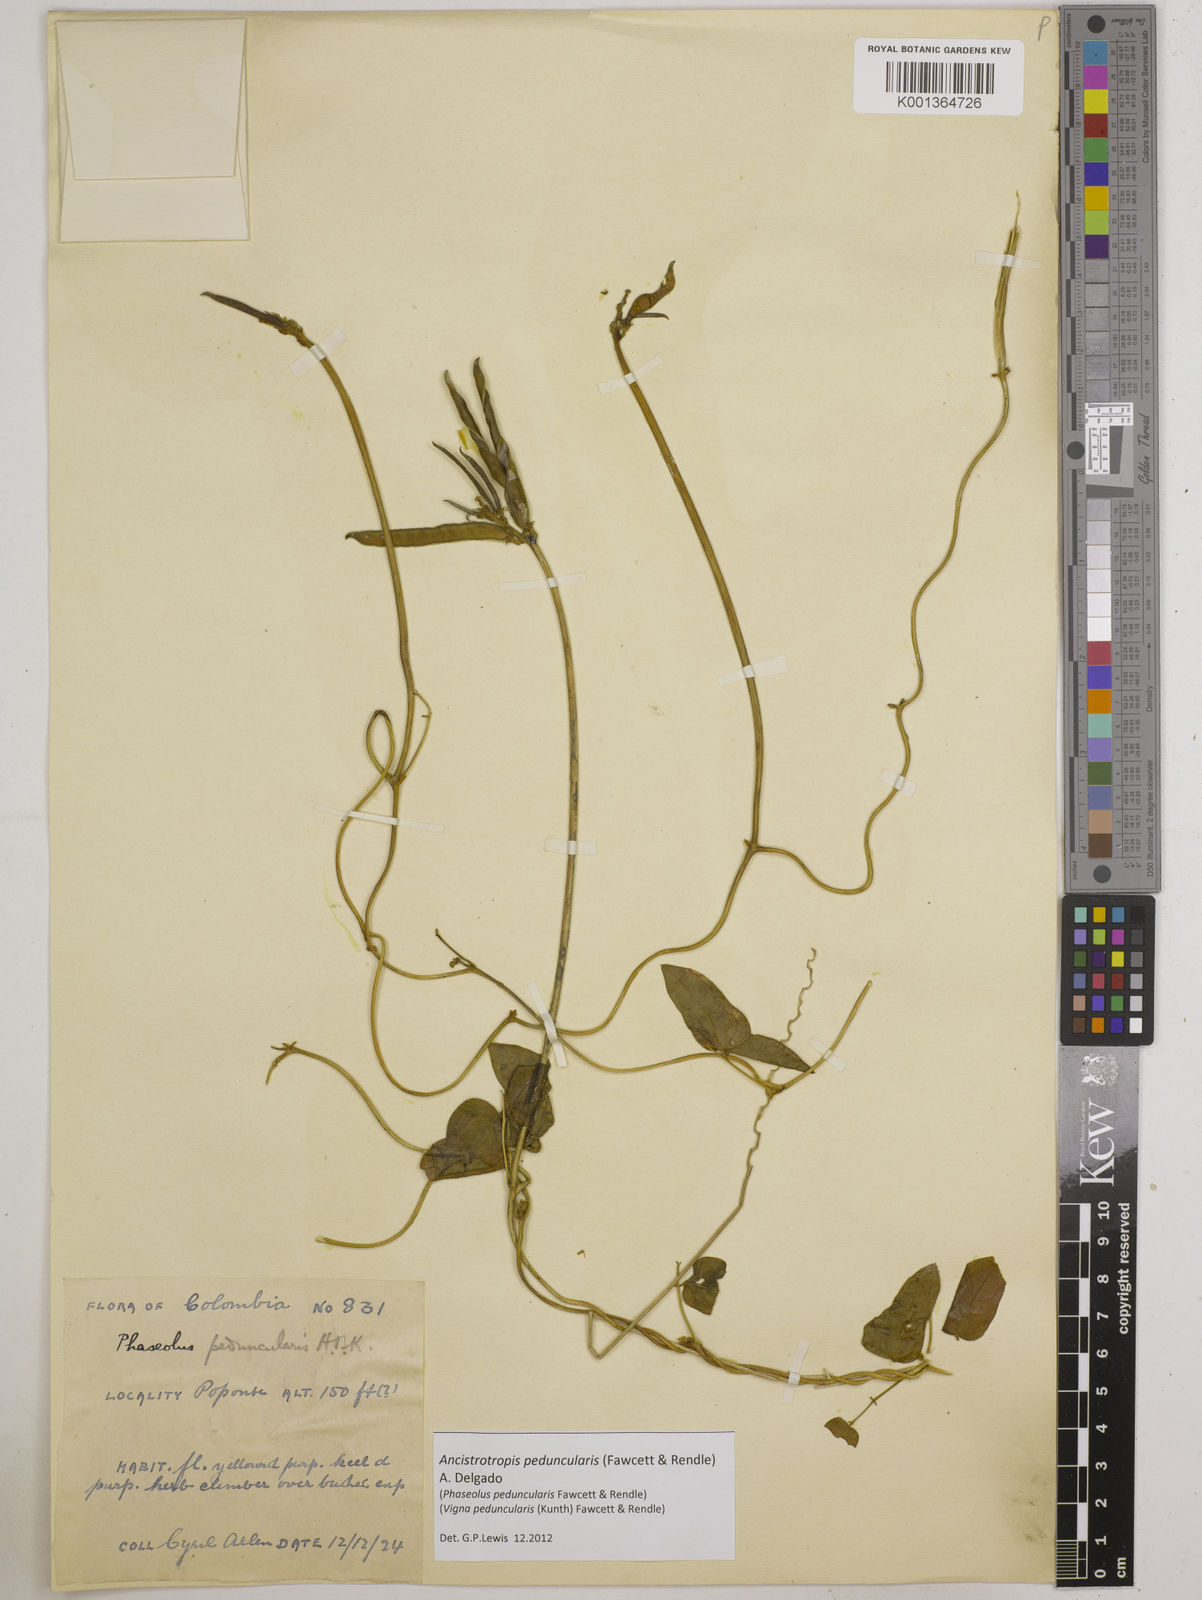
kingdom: Plantae
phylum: Tracheophyta
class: Magnoliopsida
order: Fabales
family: Fabaceae
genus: Ancistrotropis
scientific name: Ancistrotropis peduncularis
